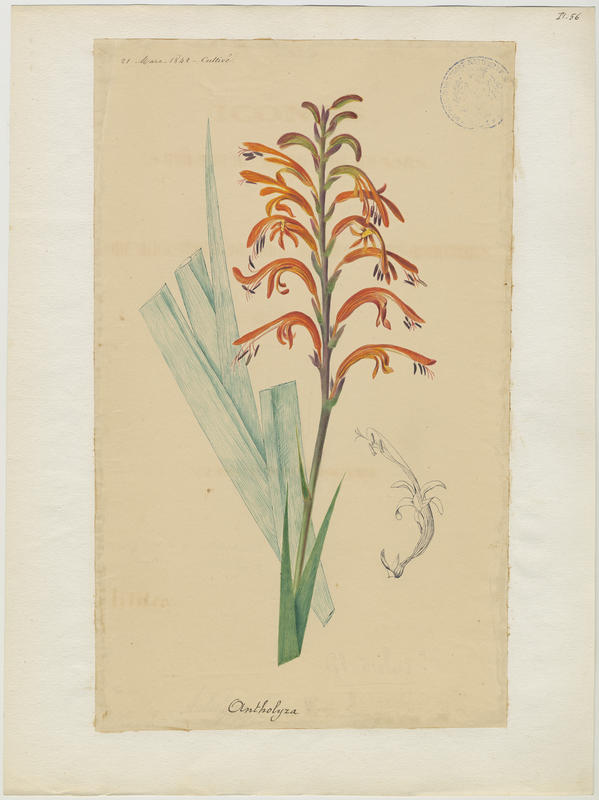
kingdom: Plantae
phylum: Tracheophyta
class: Liliopsida
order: Asparagales
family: Iridaceae
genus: Chasmanthe
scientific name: Chasmanthe bicolor
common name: Bicolor cobra lily
